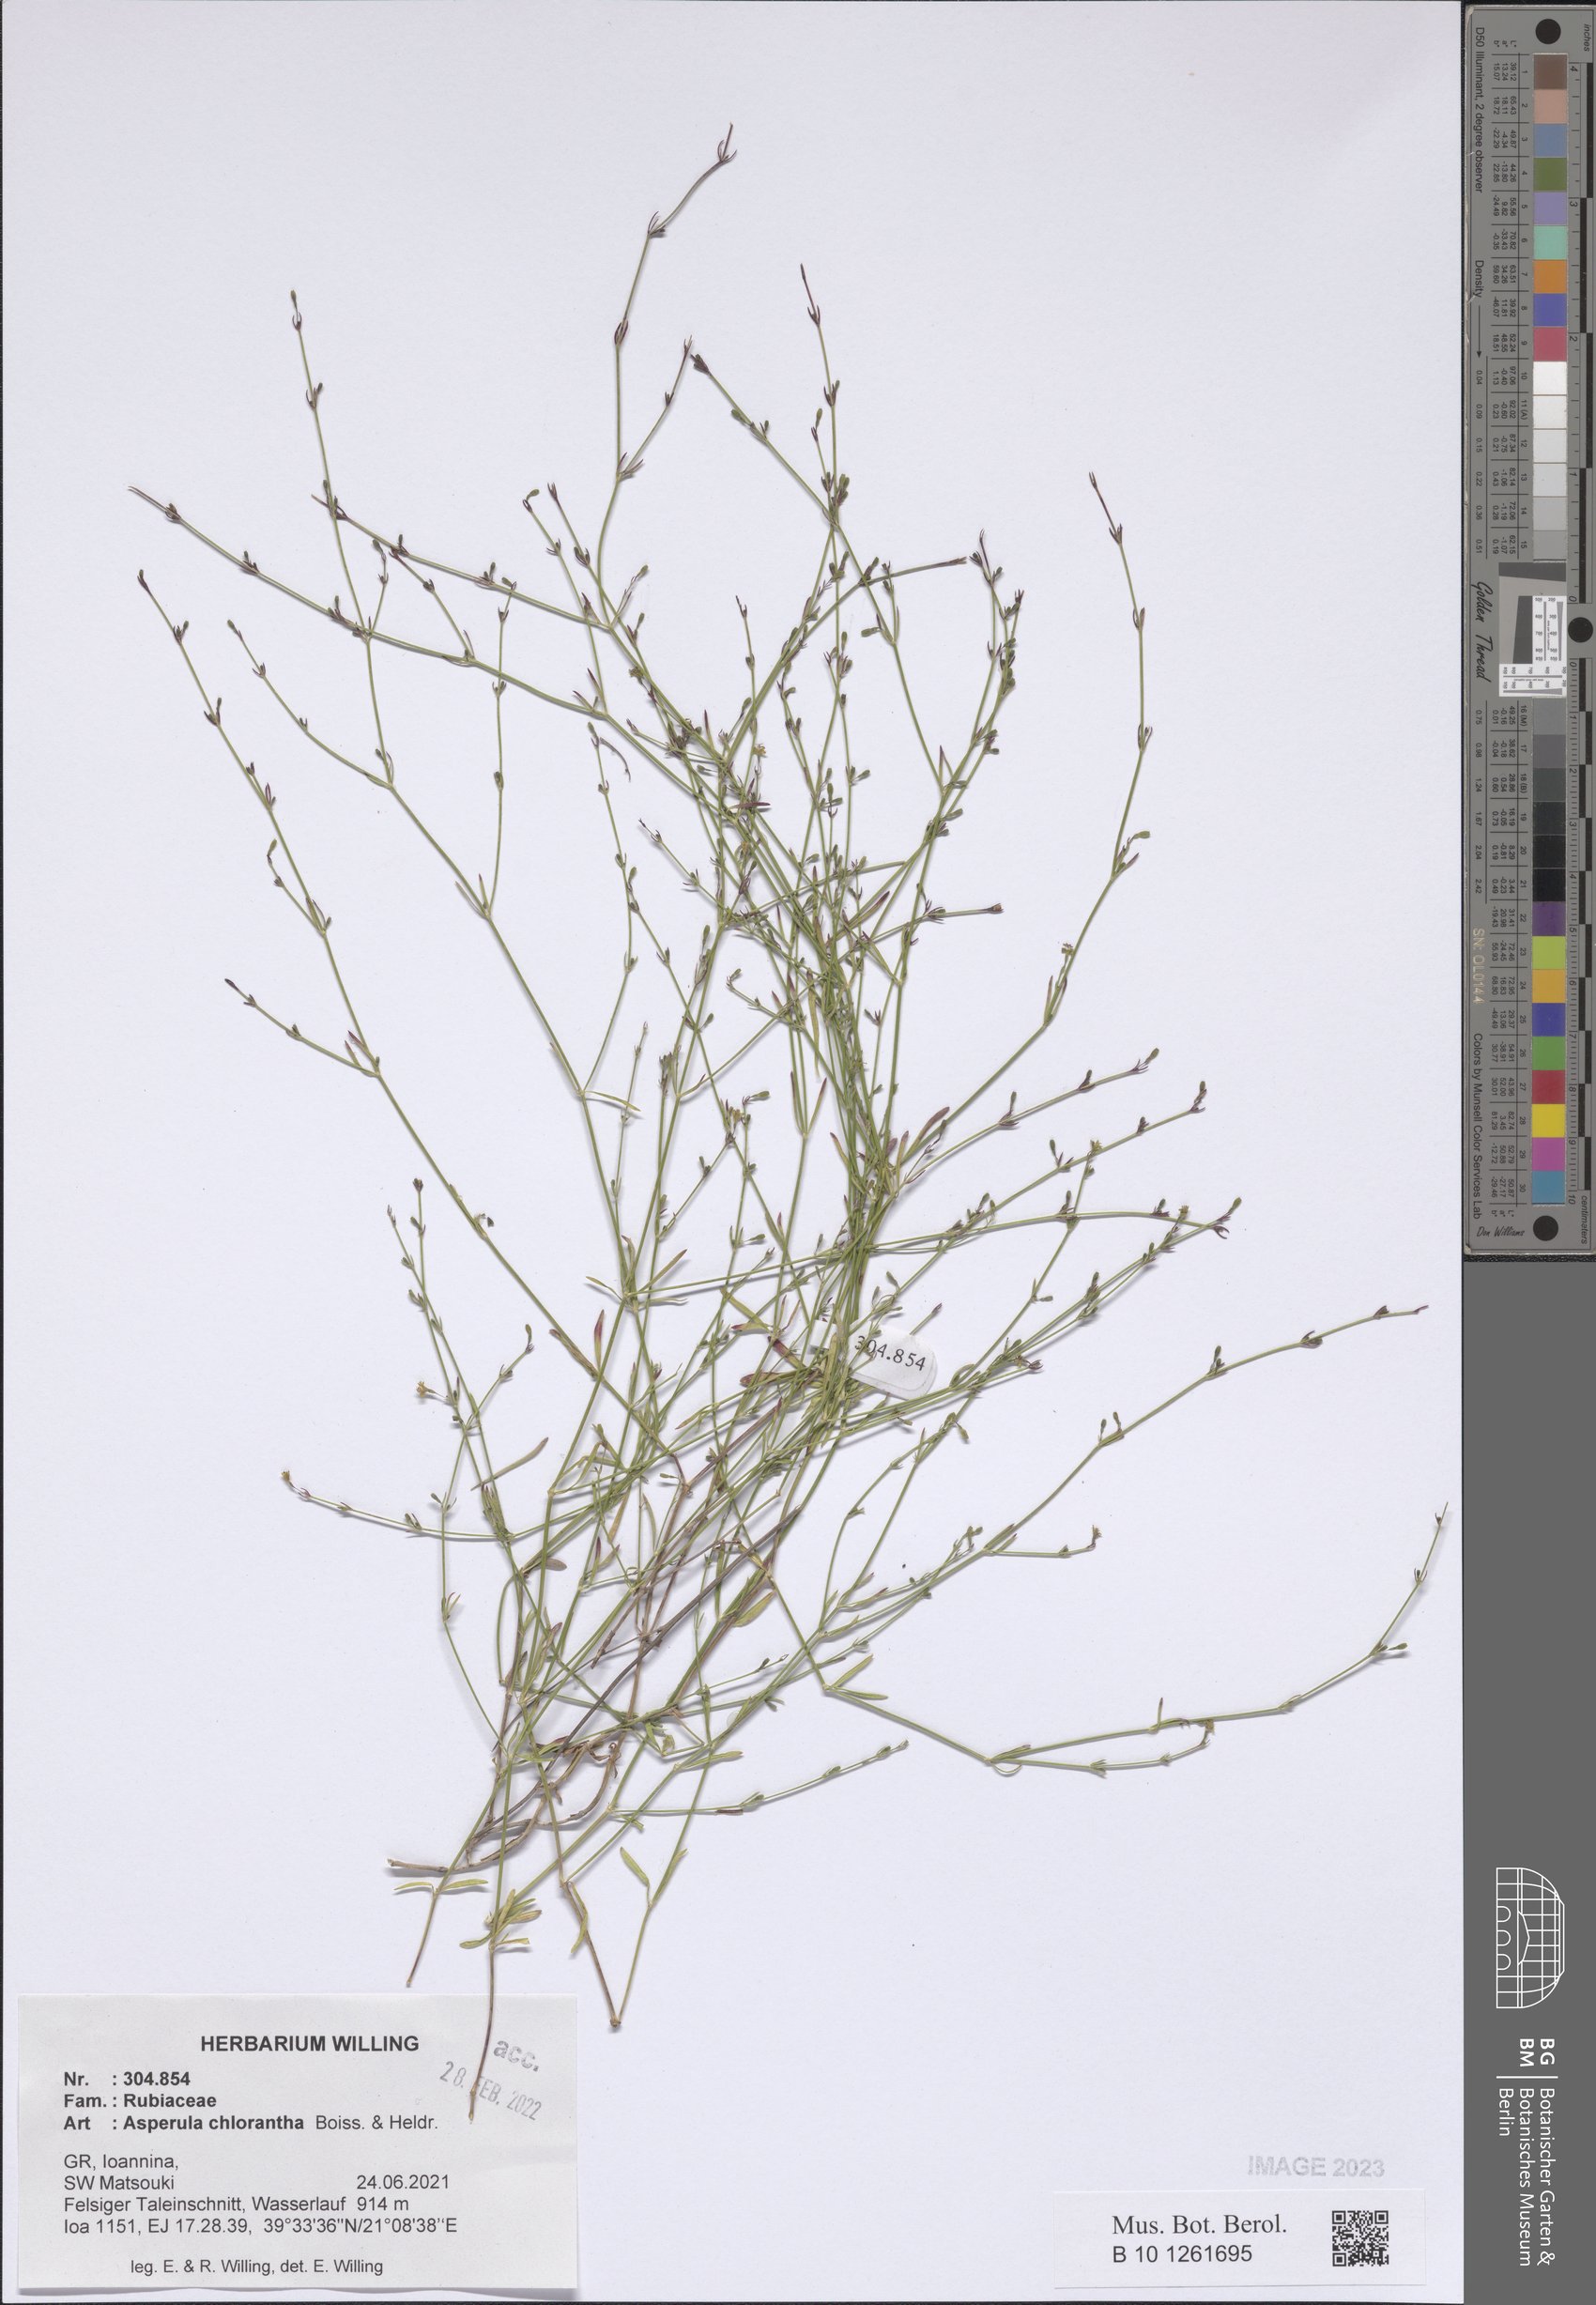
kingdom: Plantae
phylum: Tracheophyta
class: Magnoliopsida
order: Gentianales
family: Rubiaceae
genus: Thliphthisa
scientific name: Thliphthisa chlorantha
